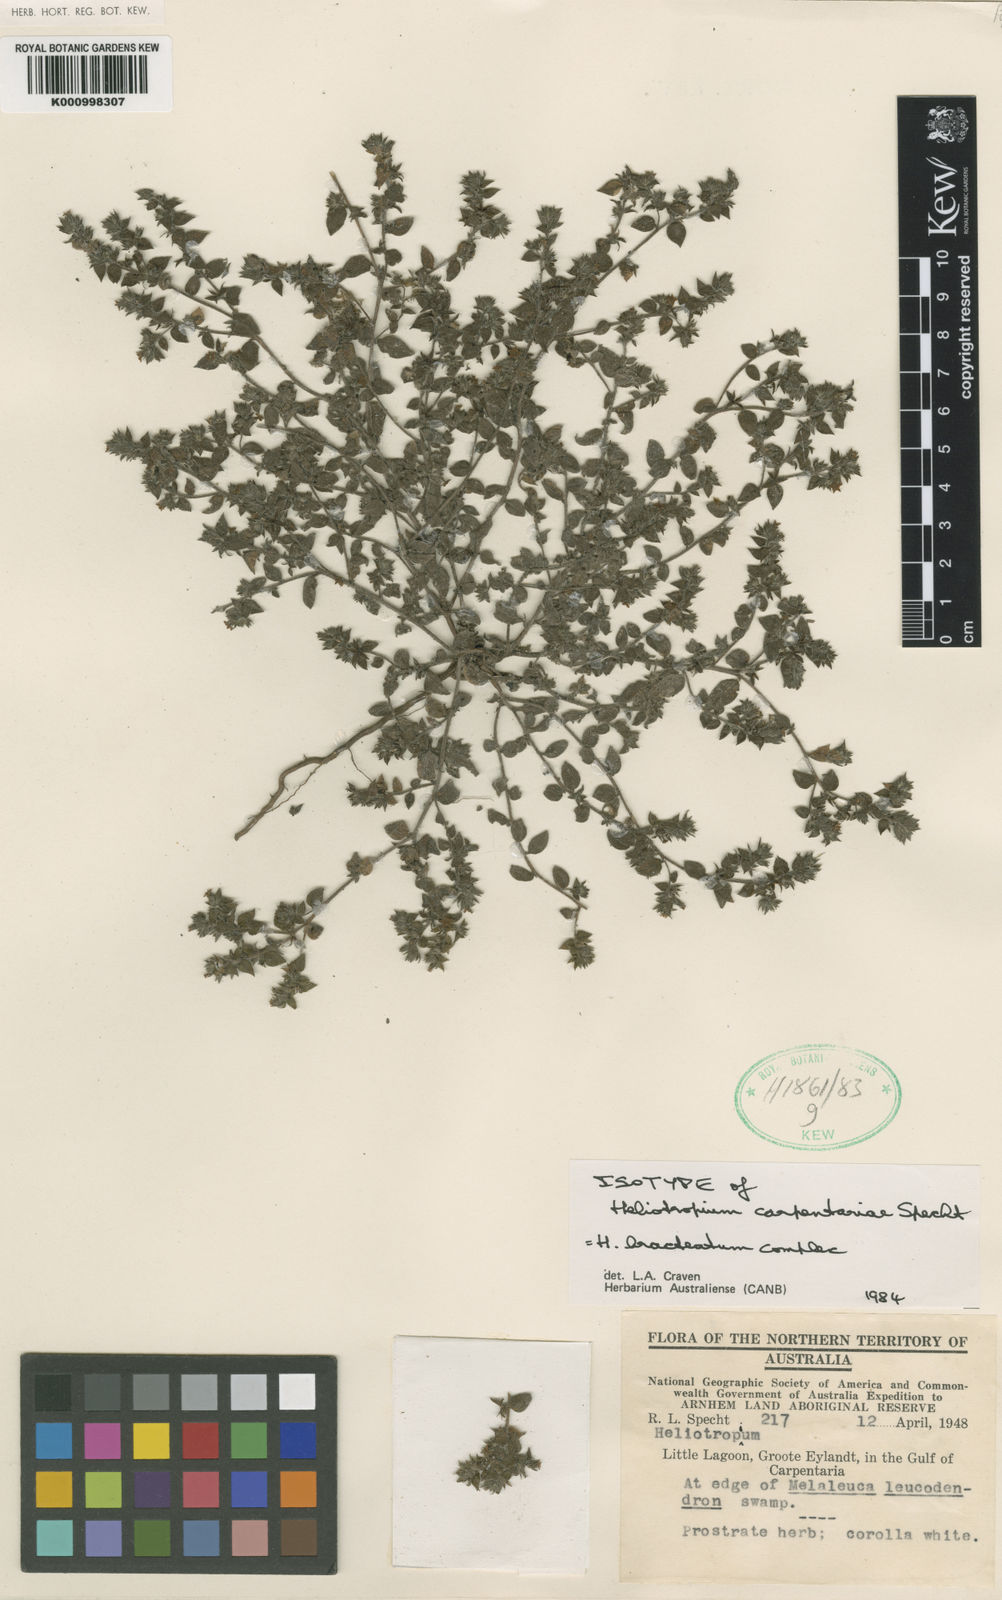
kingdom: Plantae
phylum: Tracheophyta
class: Magnoliopsida
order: Boraginales
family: Heliotropiaceae
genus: Euploca
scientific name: Euploca foliata
